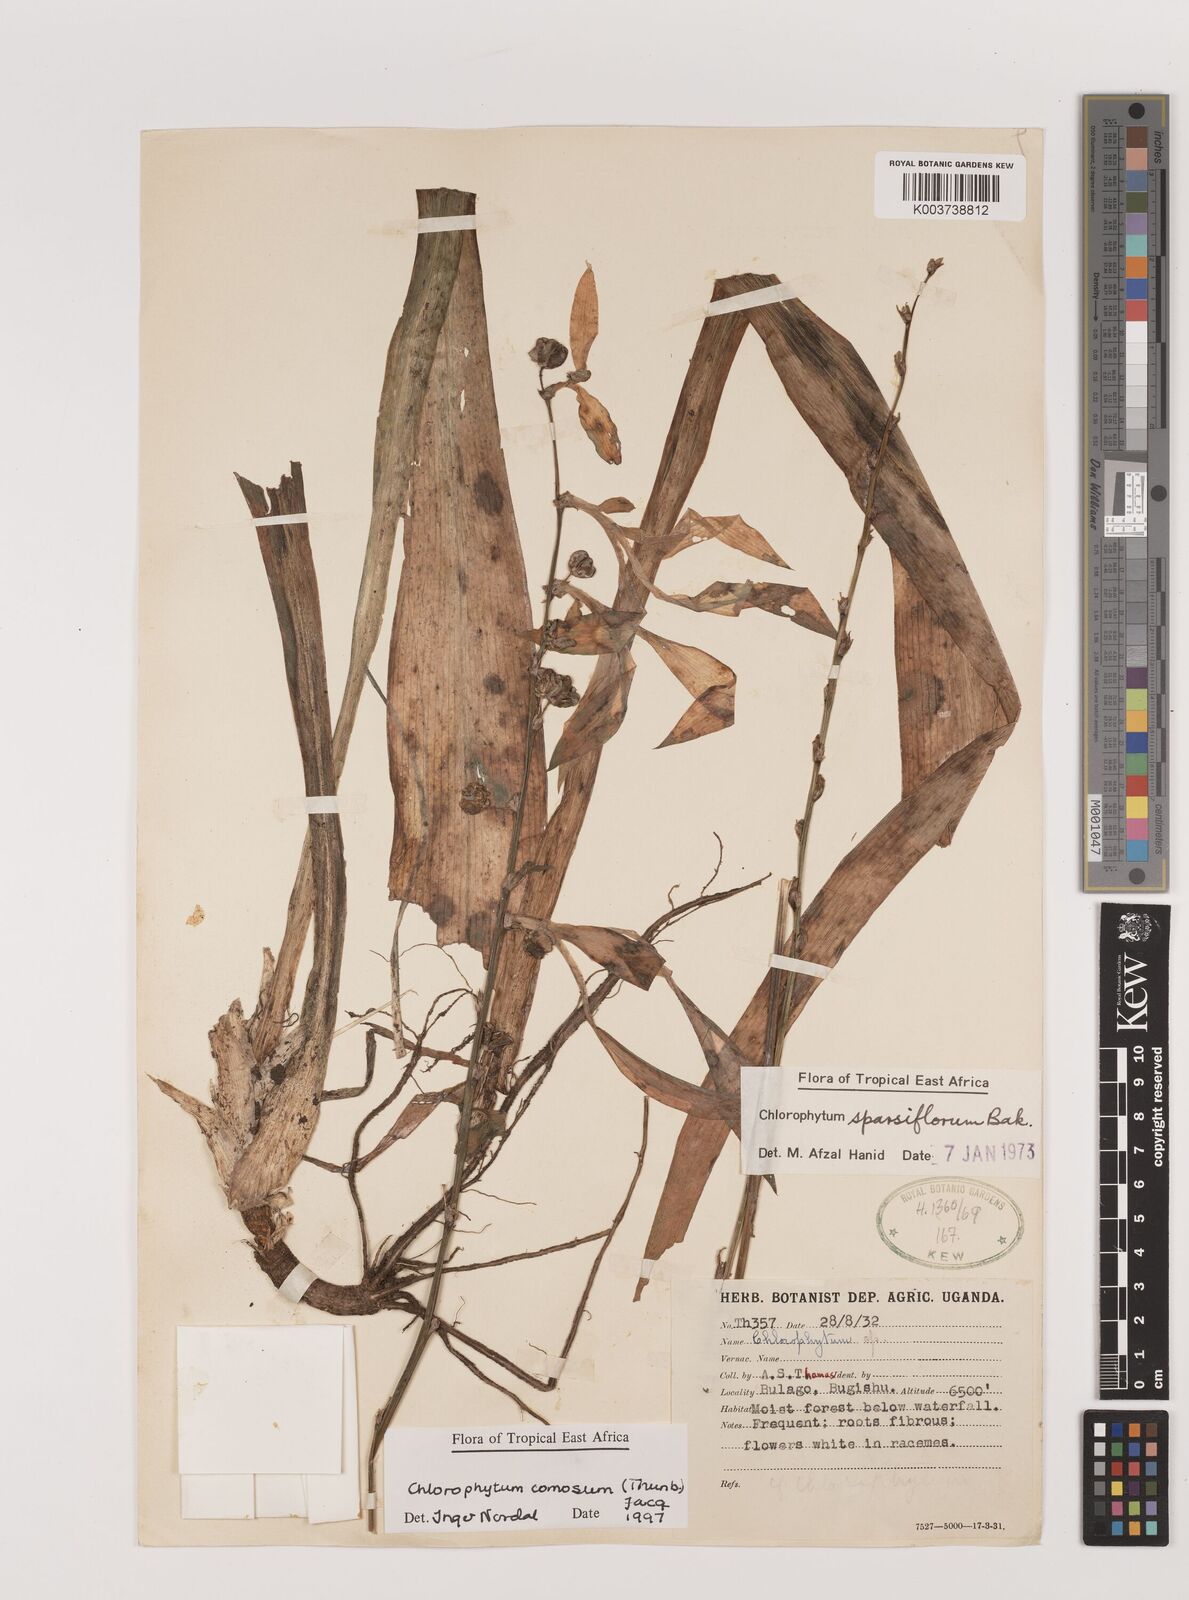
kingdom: Plantae
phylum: Tracheophyta
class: Liliopsida
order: Asparagales
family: Asparagaceae
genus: Chlorophytum
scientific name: Chlorophytum comosum
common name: Spider plant
